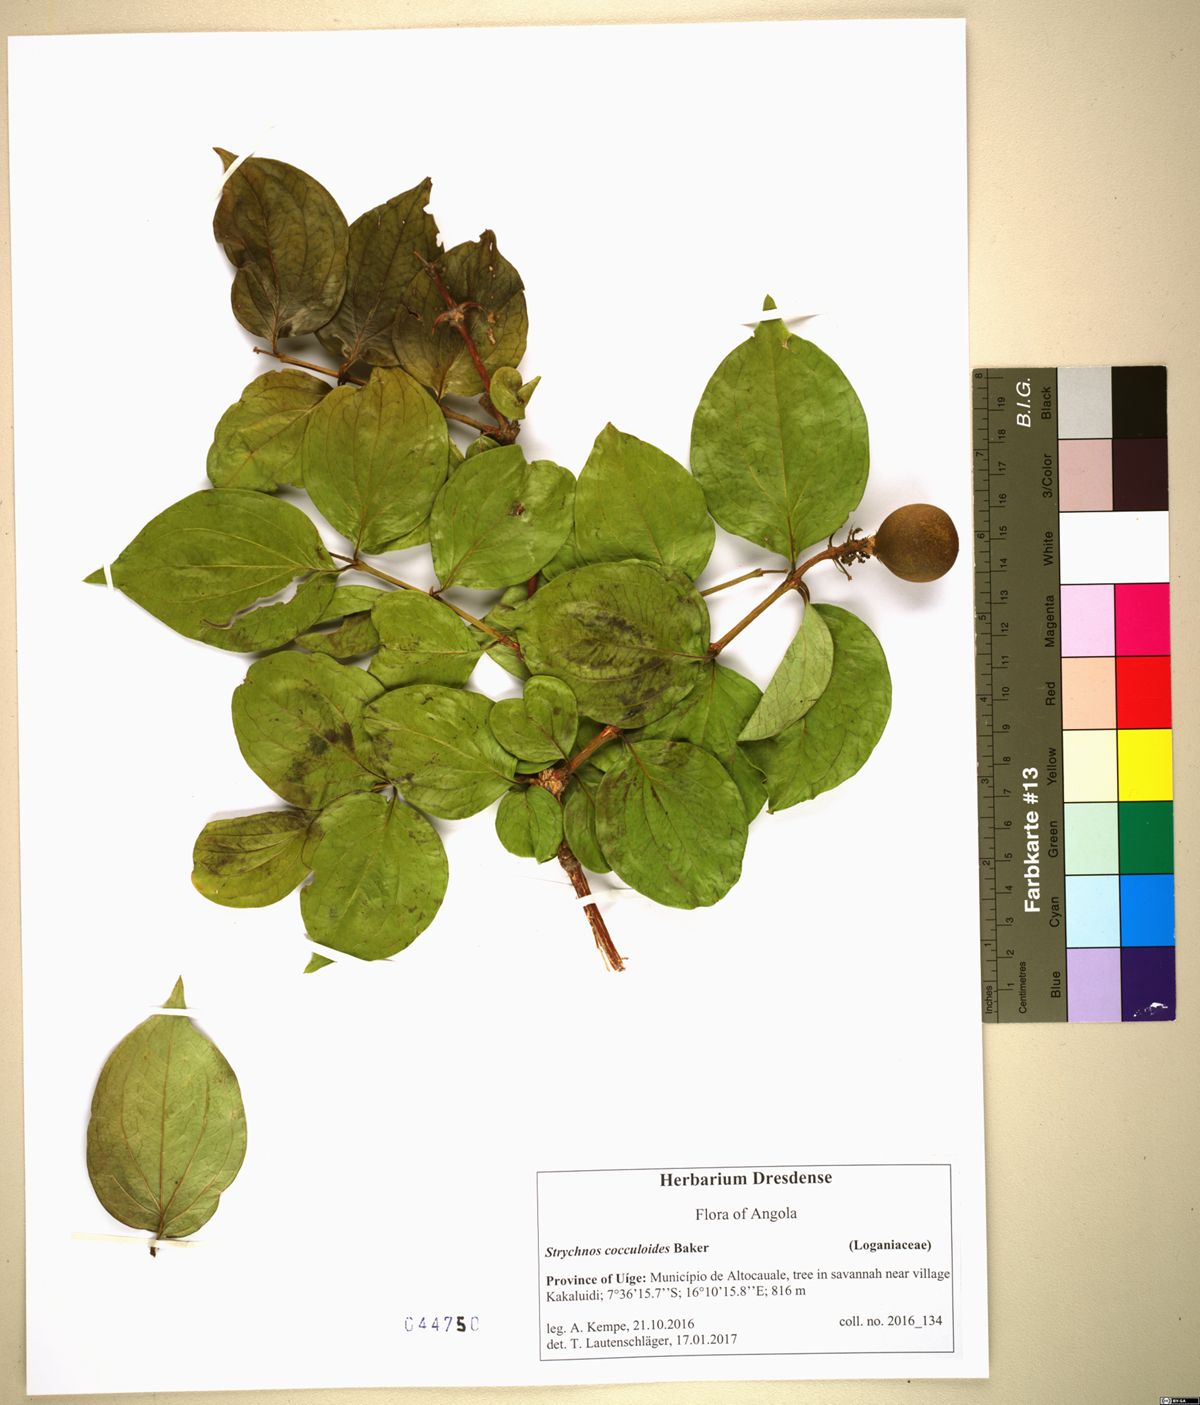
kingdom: Plantae
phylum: Tracheophyta
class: Magnoliopsida
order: Gentianales
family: Loganiaceae
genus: Strychnos
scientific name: Strychnos cocculoides
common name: Corky-bark monkey-orange
